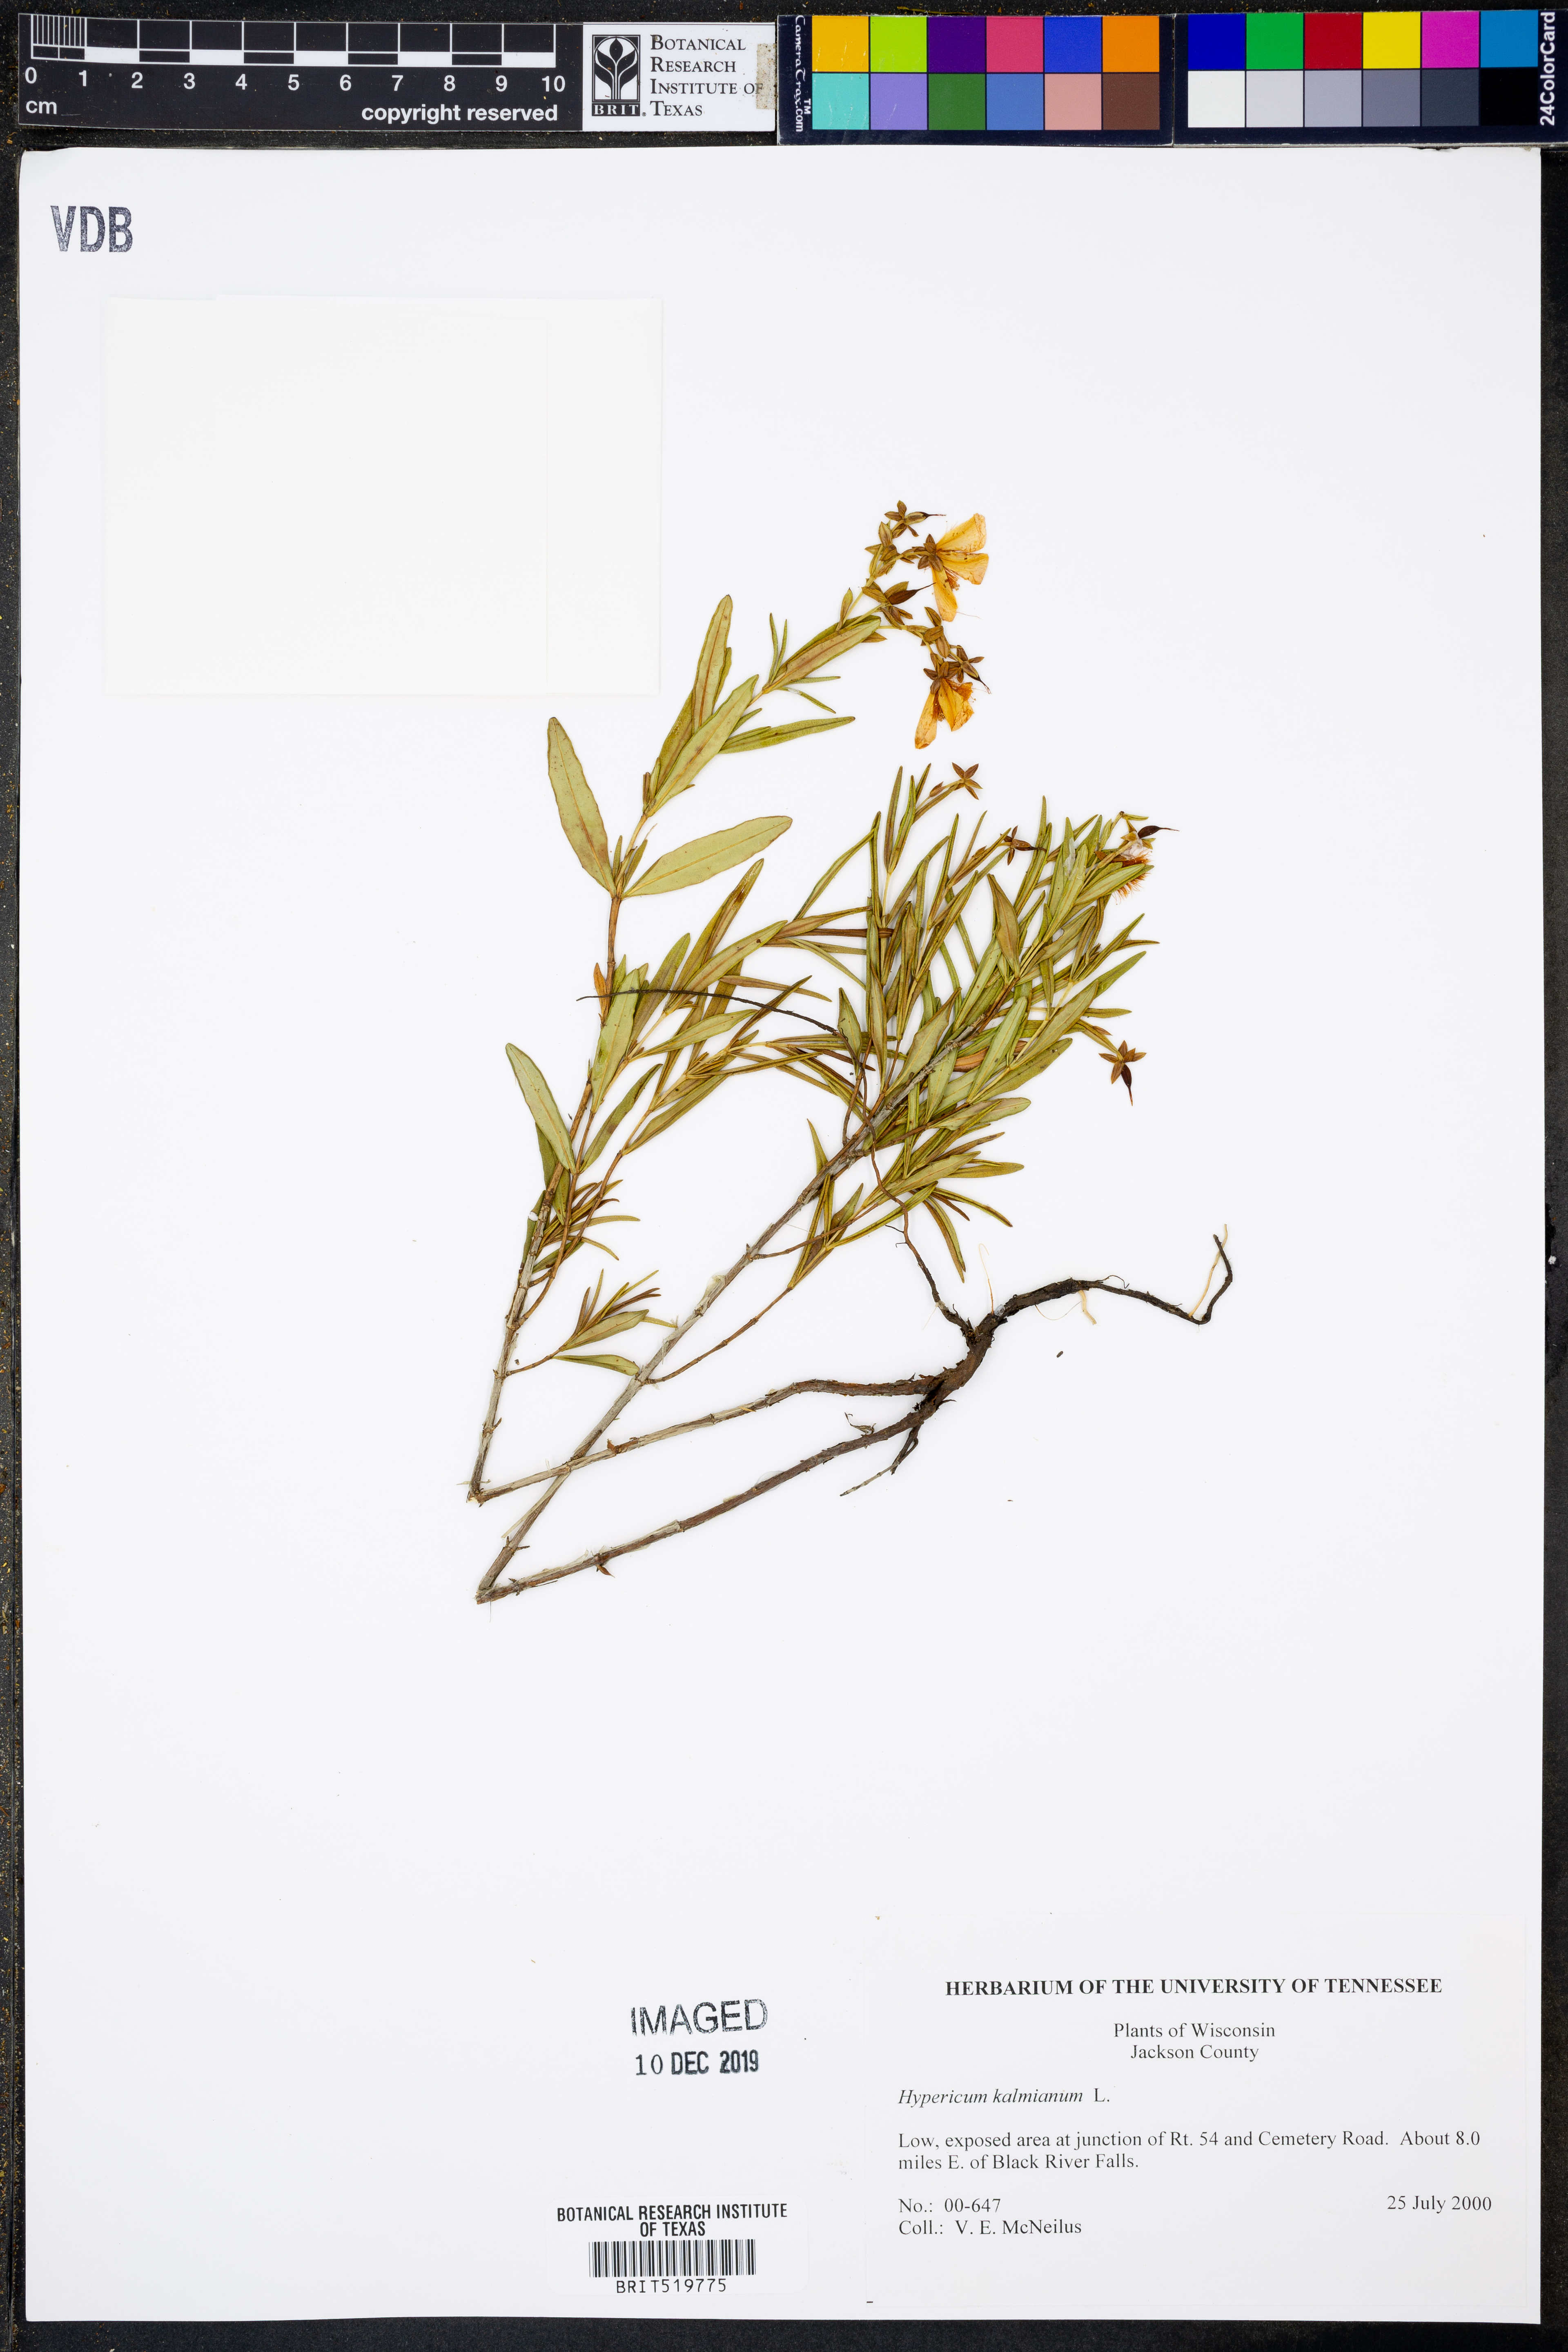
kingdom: Plantae
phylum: Tracheophyta
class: Magnoliopsida
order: Malpighiales
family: Hypericaceae
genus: Hypericum
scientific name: Hypericum kalmianum
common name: Kalm's st. john's-wort
